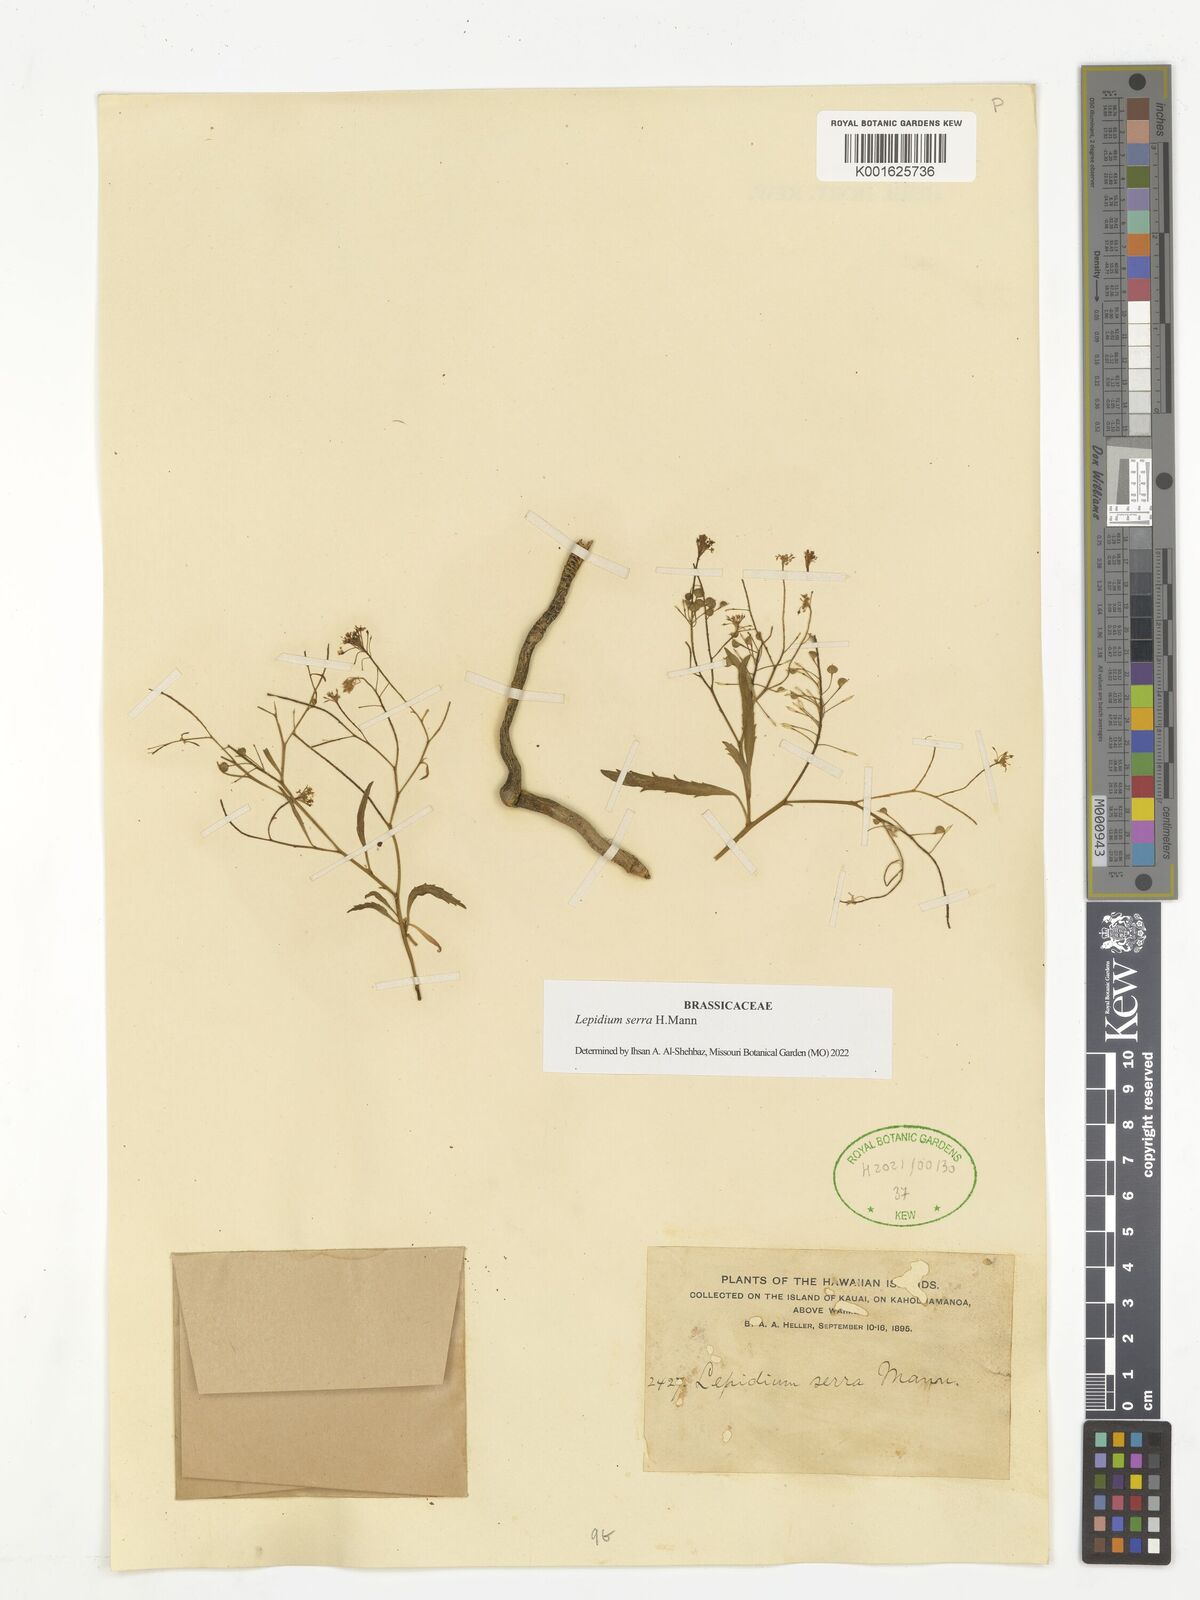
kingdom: Plantae
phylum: Tracheophyta
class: Magnoliopsida
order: Brassicales
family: Brassicaceae
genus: Lepidium
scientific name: Lepidium serra
